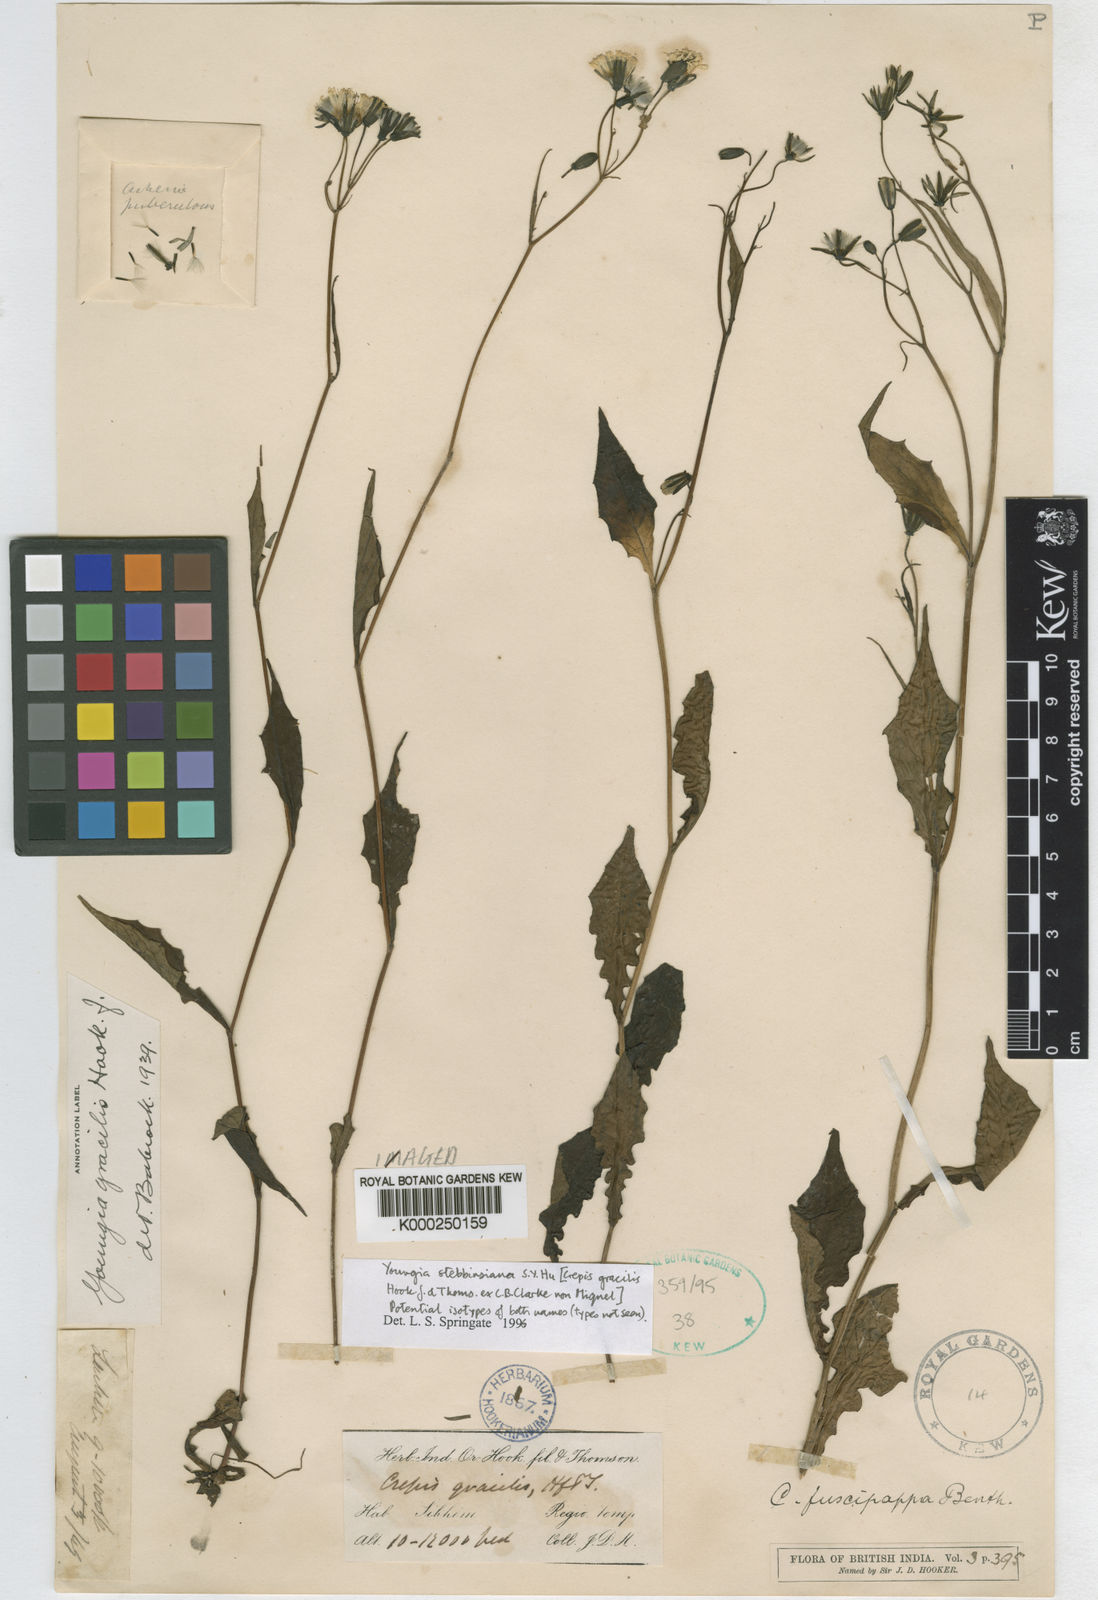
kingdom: Plantae
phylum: Tracheophyta
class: Magnoliopsida
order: Asterales
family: Asteraceae
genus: Youngia
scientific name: Youngia gracilipes
